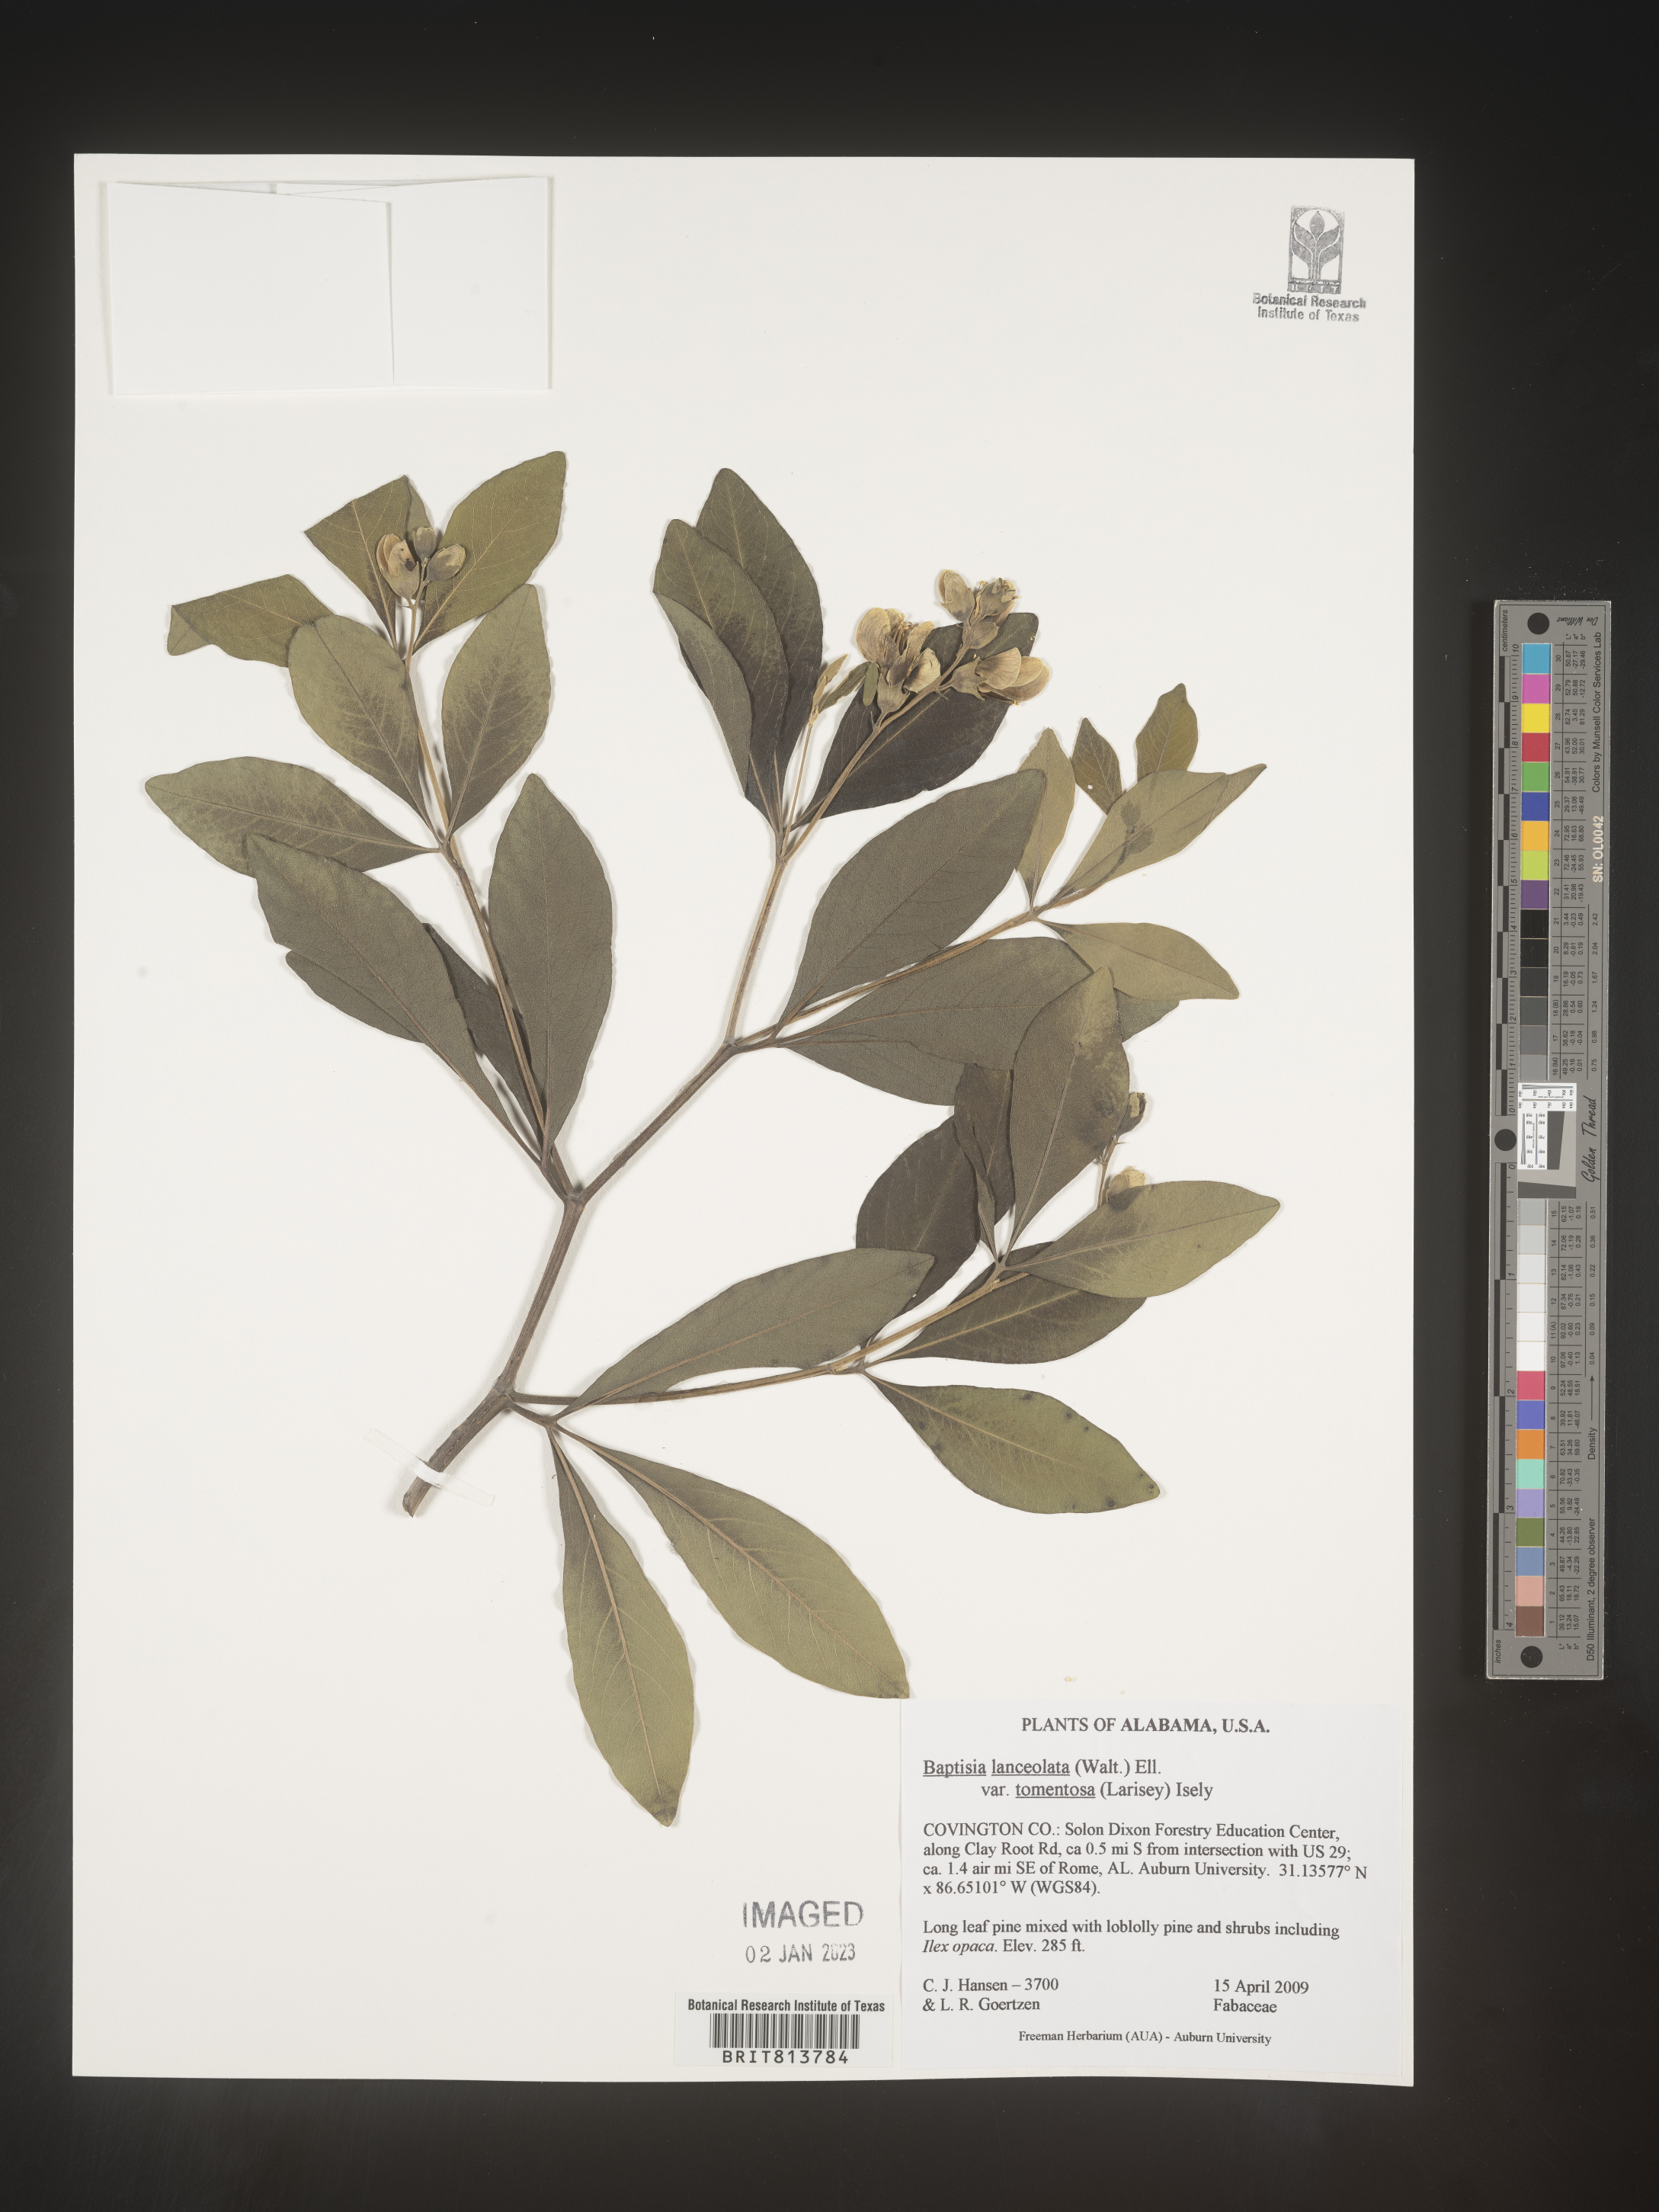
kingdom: Plantae
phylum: Tracheophyta
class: Magnoliopsida
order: Fabales
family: Fabaceae
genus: Baptisia
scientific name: Baptisia lanceolata
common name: Gopherweed
